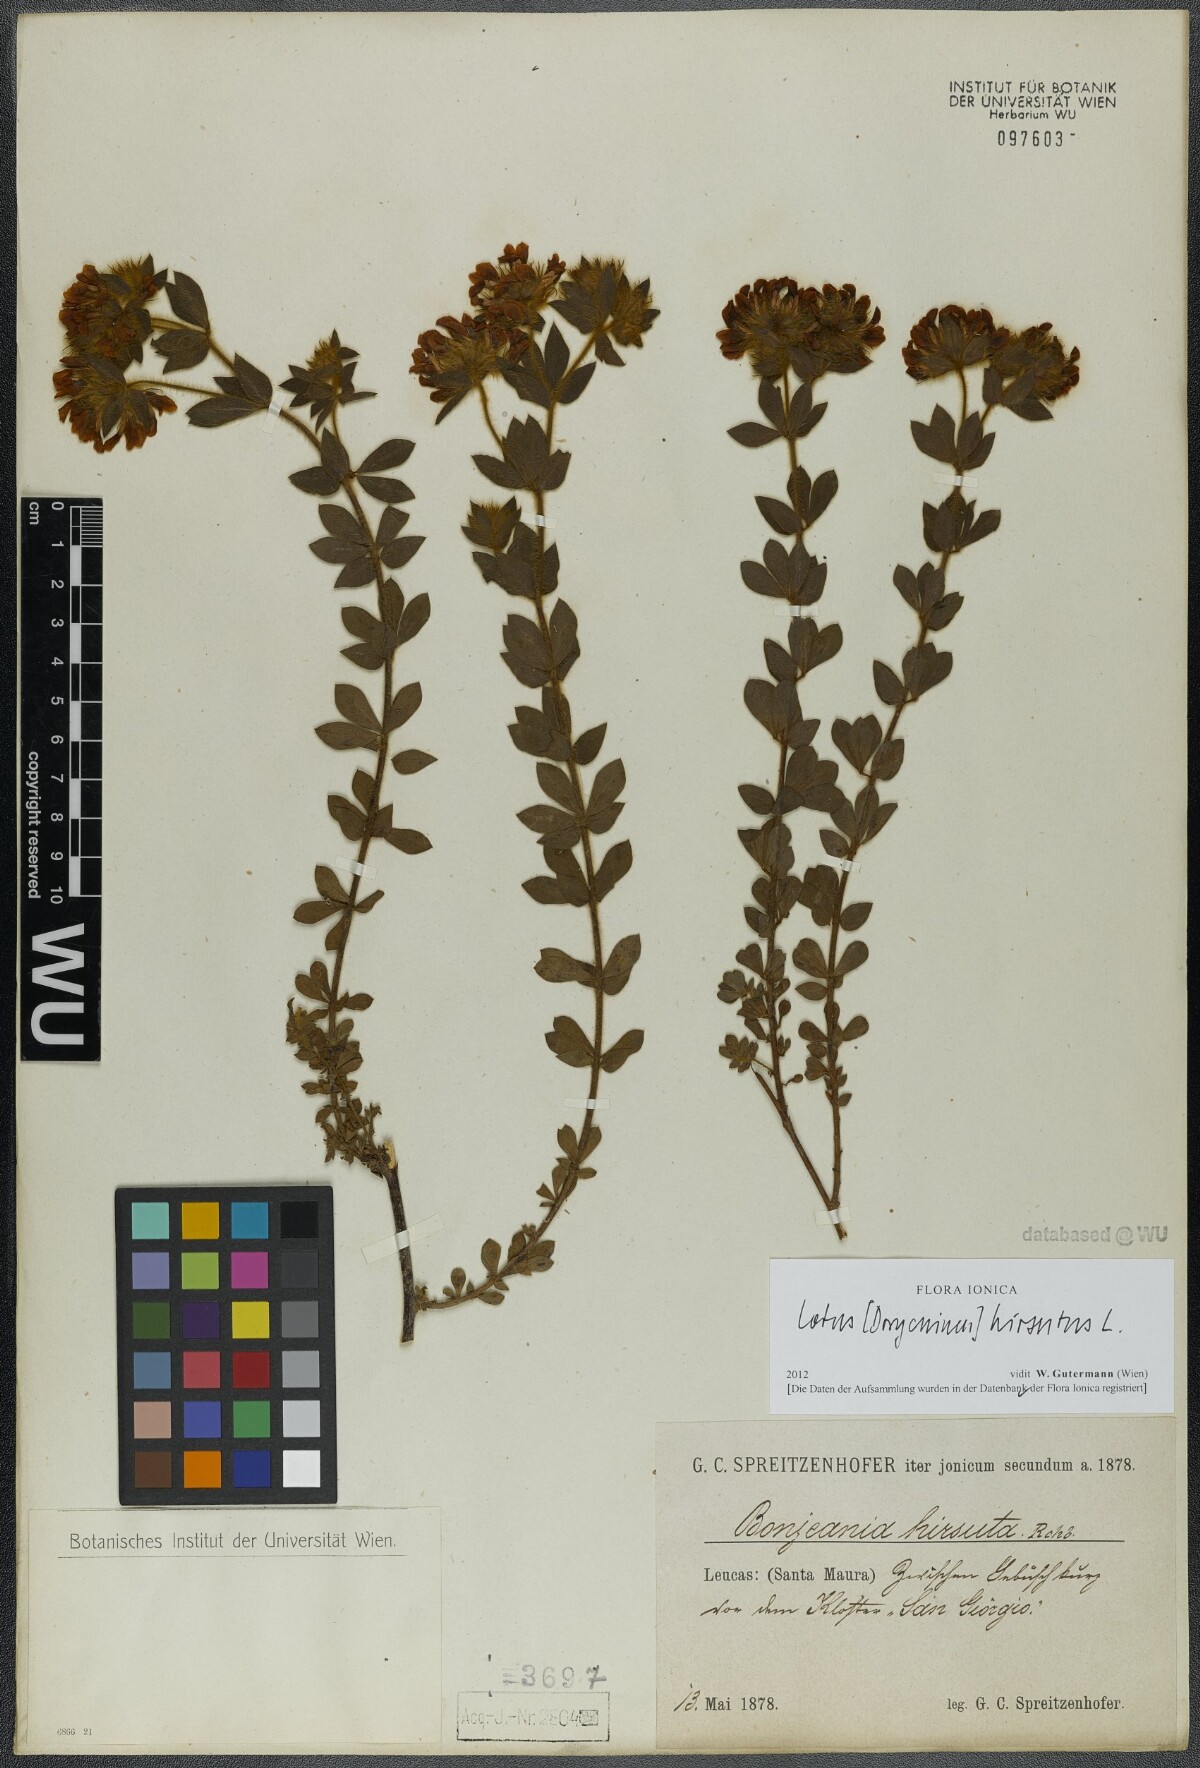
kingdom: Plantae
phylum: Tracheophyta
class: Magnoliopsida
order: Fabales
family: Fabaceae
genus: Lotus
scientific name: Lotus hirsutus
